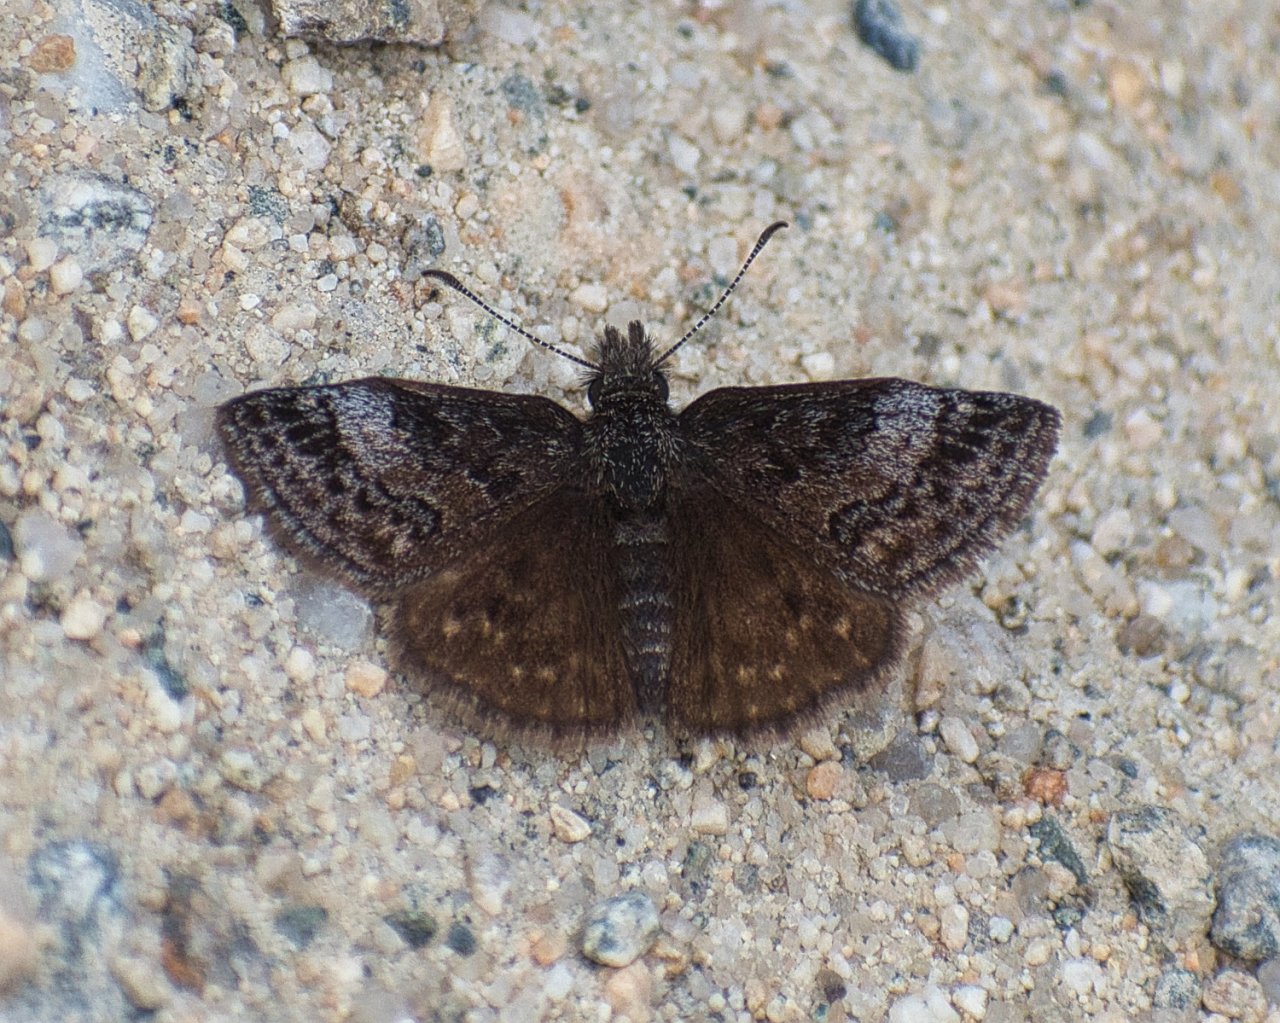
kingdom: Animalia
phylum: Arthropoda
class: Insecta
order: Lepidoptera
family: Hesperiidae
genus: Erynnis
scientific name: Erynnis icelus
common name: Dreamy Duskywing
